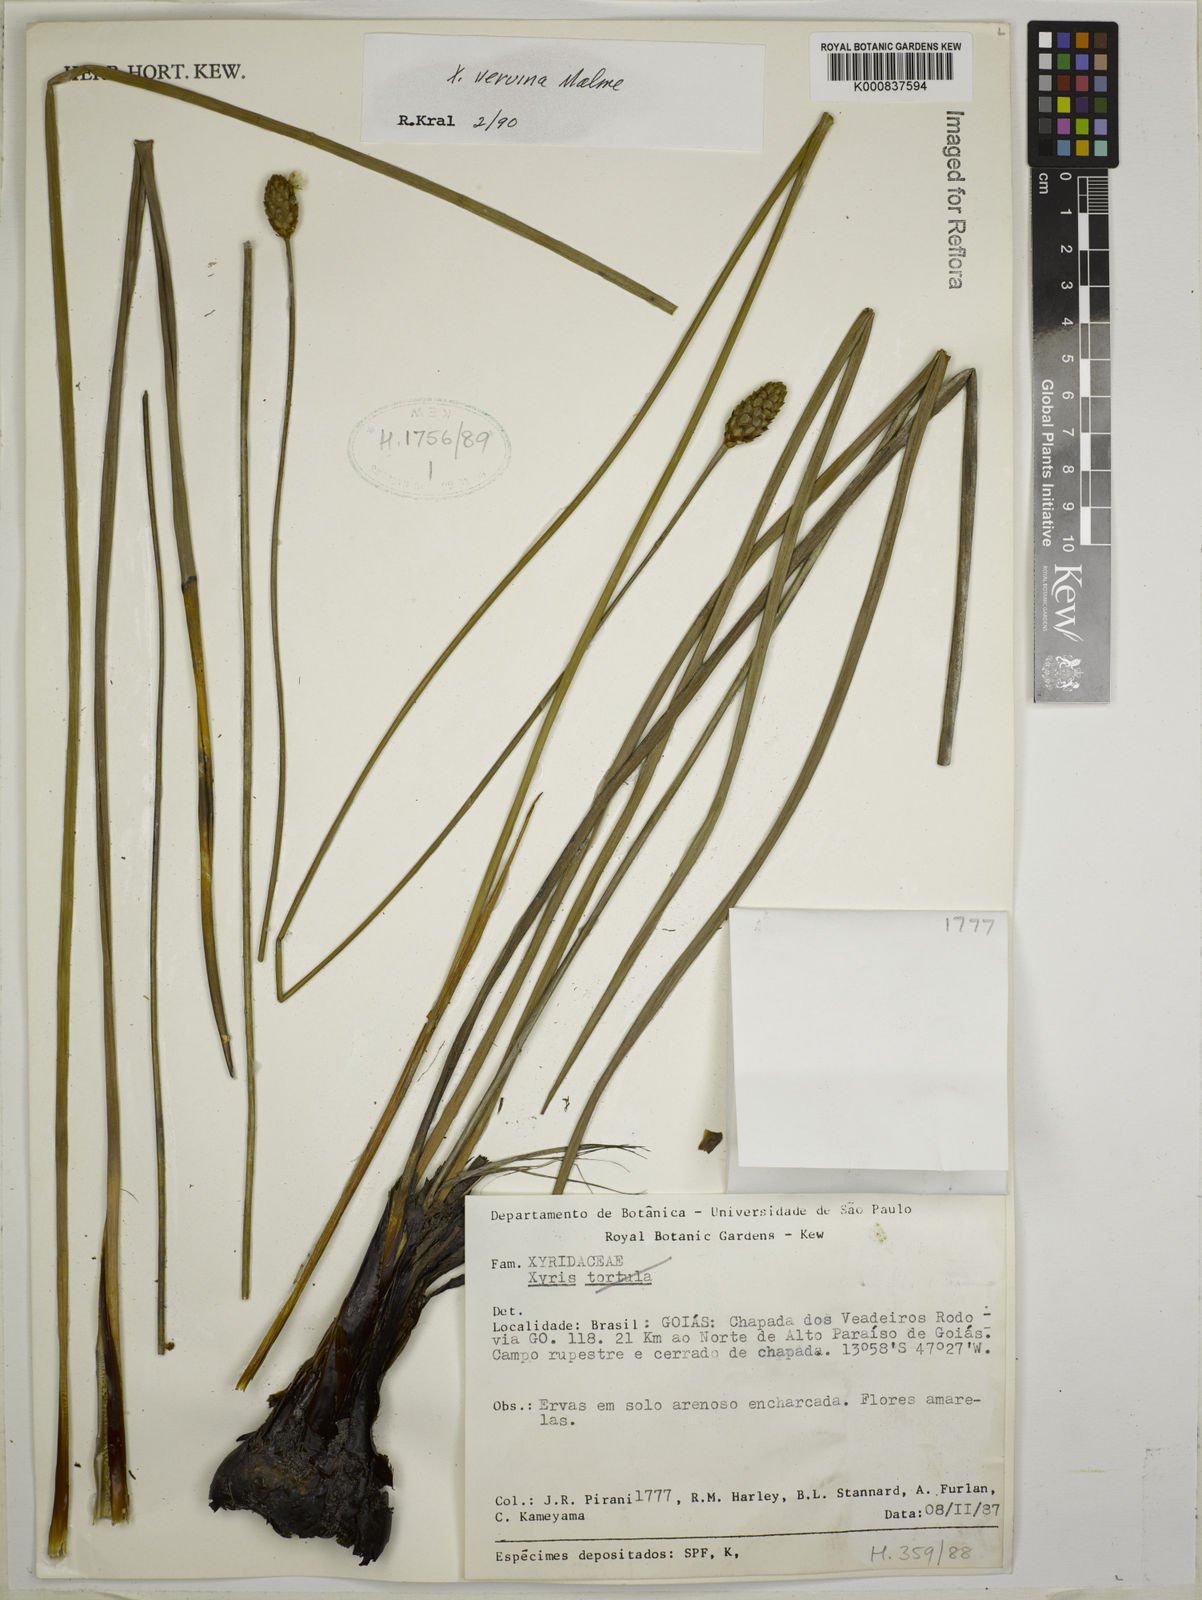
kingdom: Plantae
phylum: Tracheophyta
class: Liliopsida
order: Poales
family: Xyridaceae
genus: Xyris
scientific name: Xyris veruina
